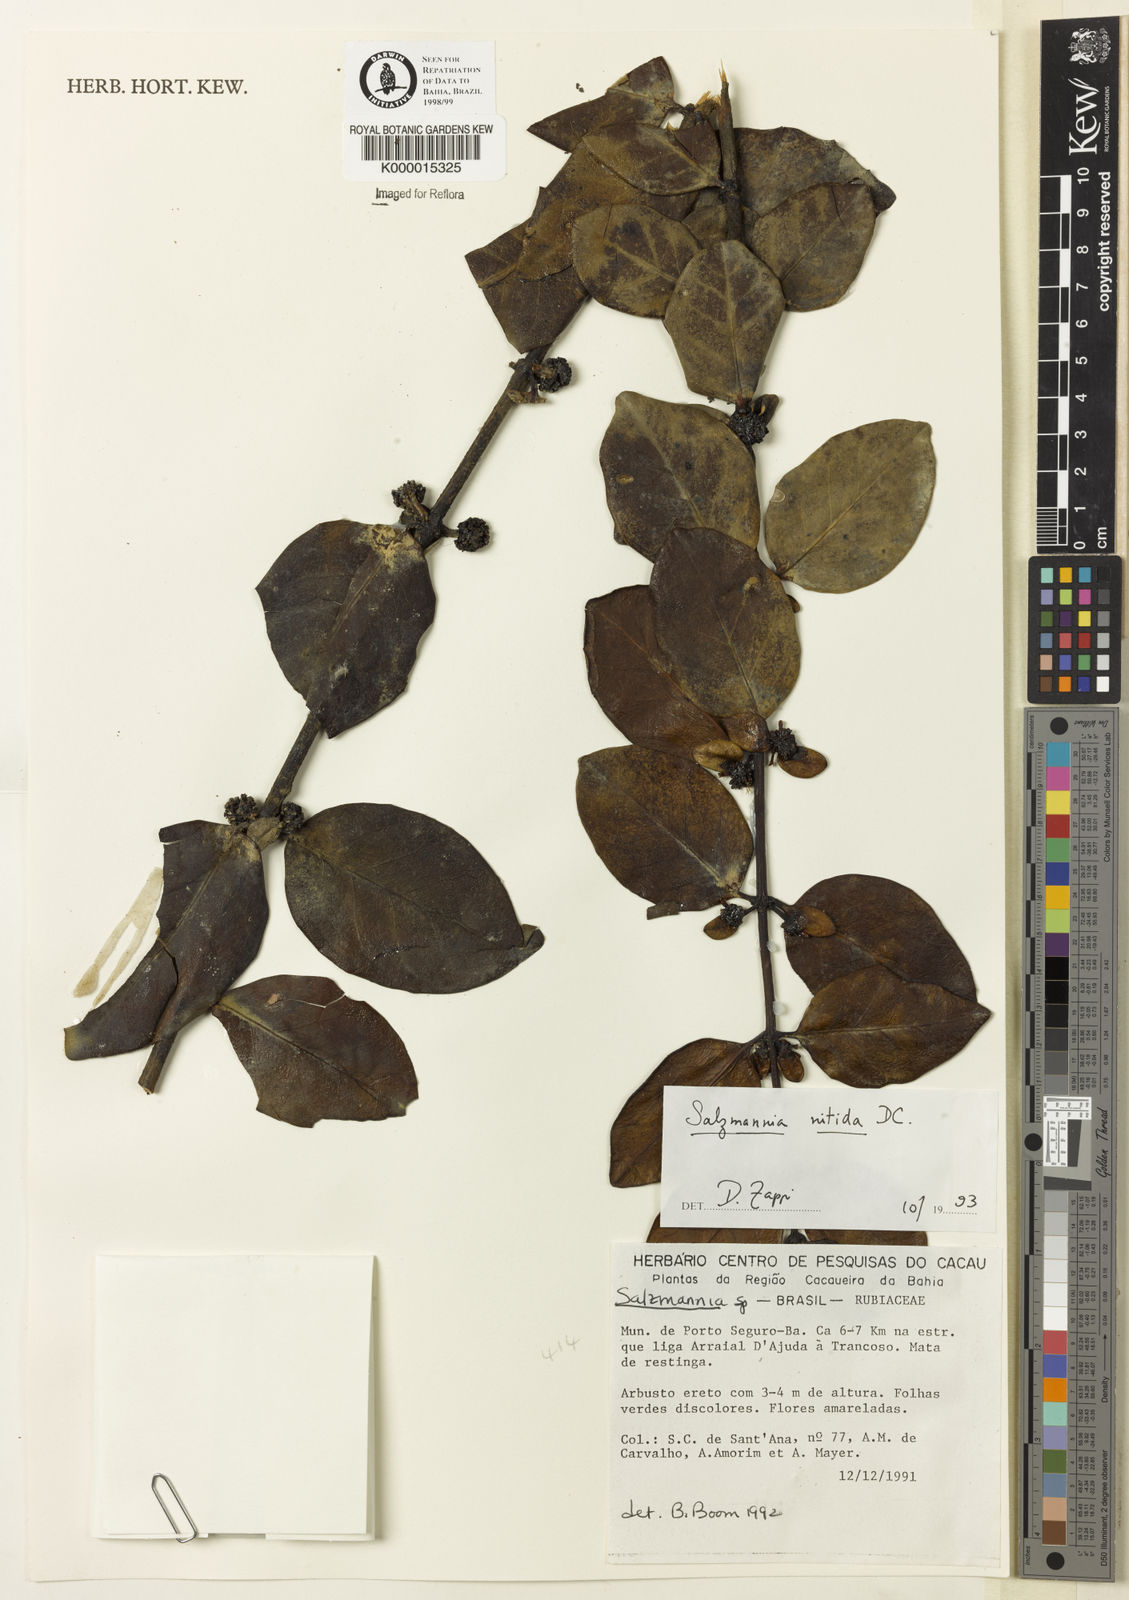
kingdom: Plantae
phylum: Tracheophyta
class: Magnoliopsida
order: Gentianales
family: Rubiaceae
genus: Salzmannia
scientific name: Salzmannia nitida
